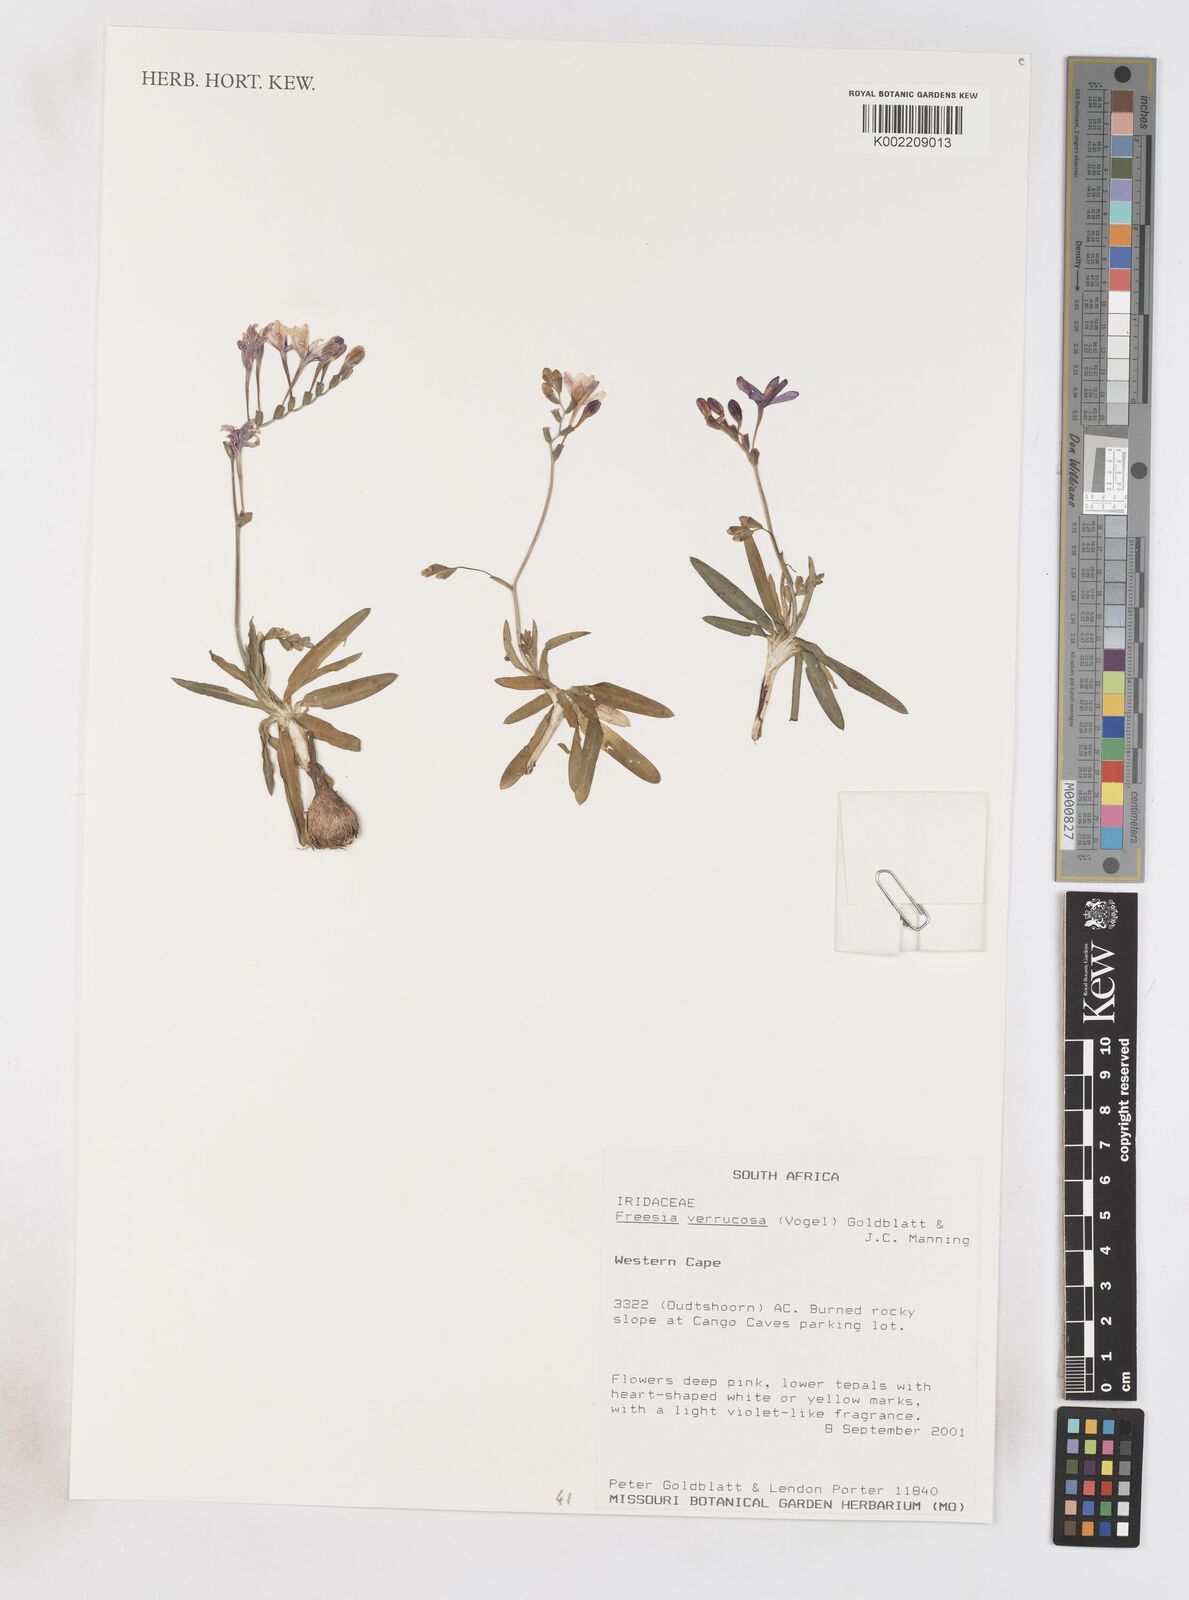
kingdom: Plantae
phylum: Tracheophyta
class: Liliopsida
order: Asparagales
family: Iridaceae
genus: Freesia
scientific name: Freesia verrucosa
